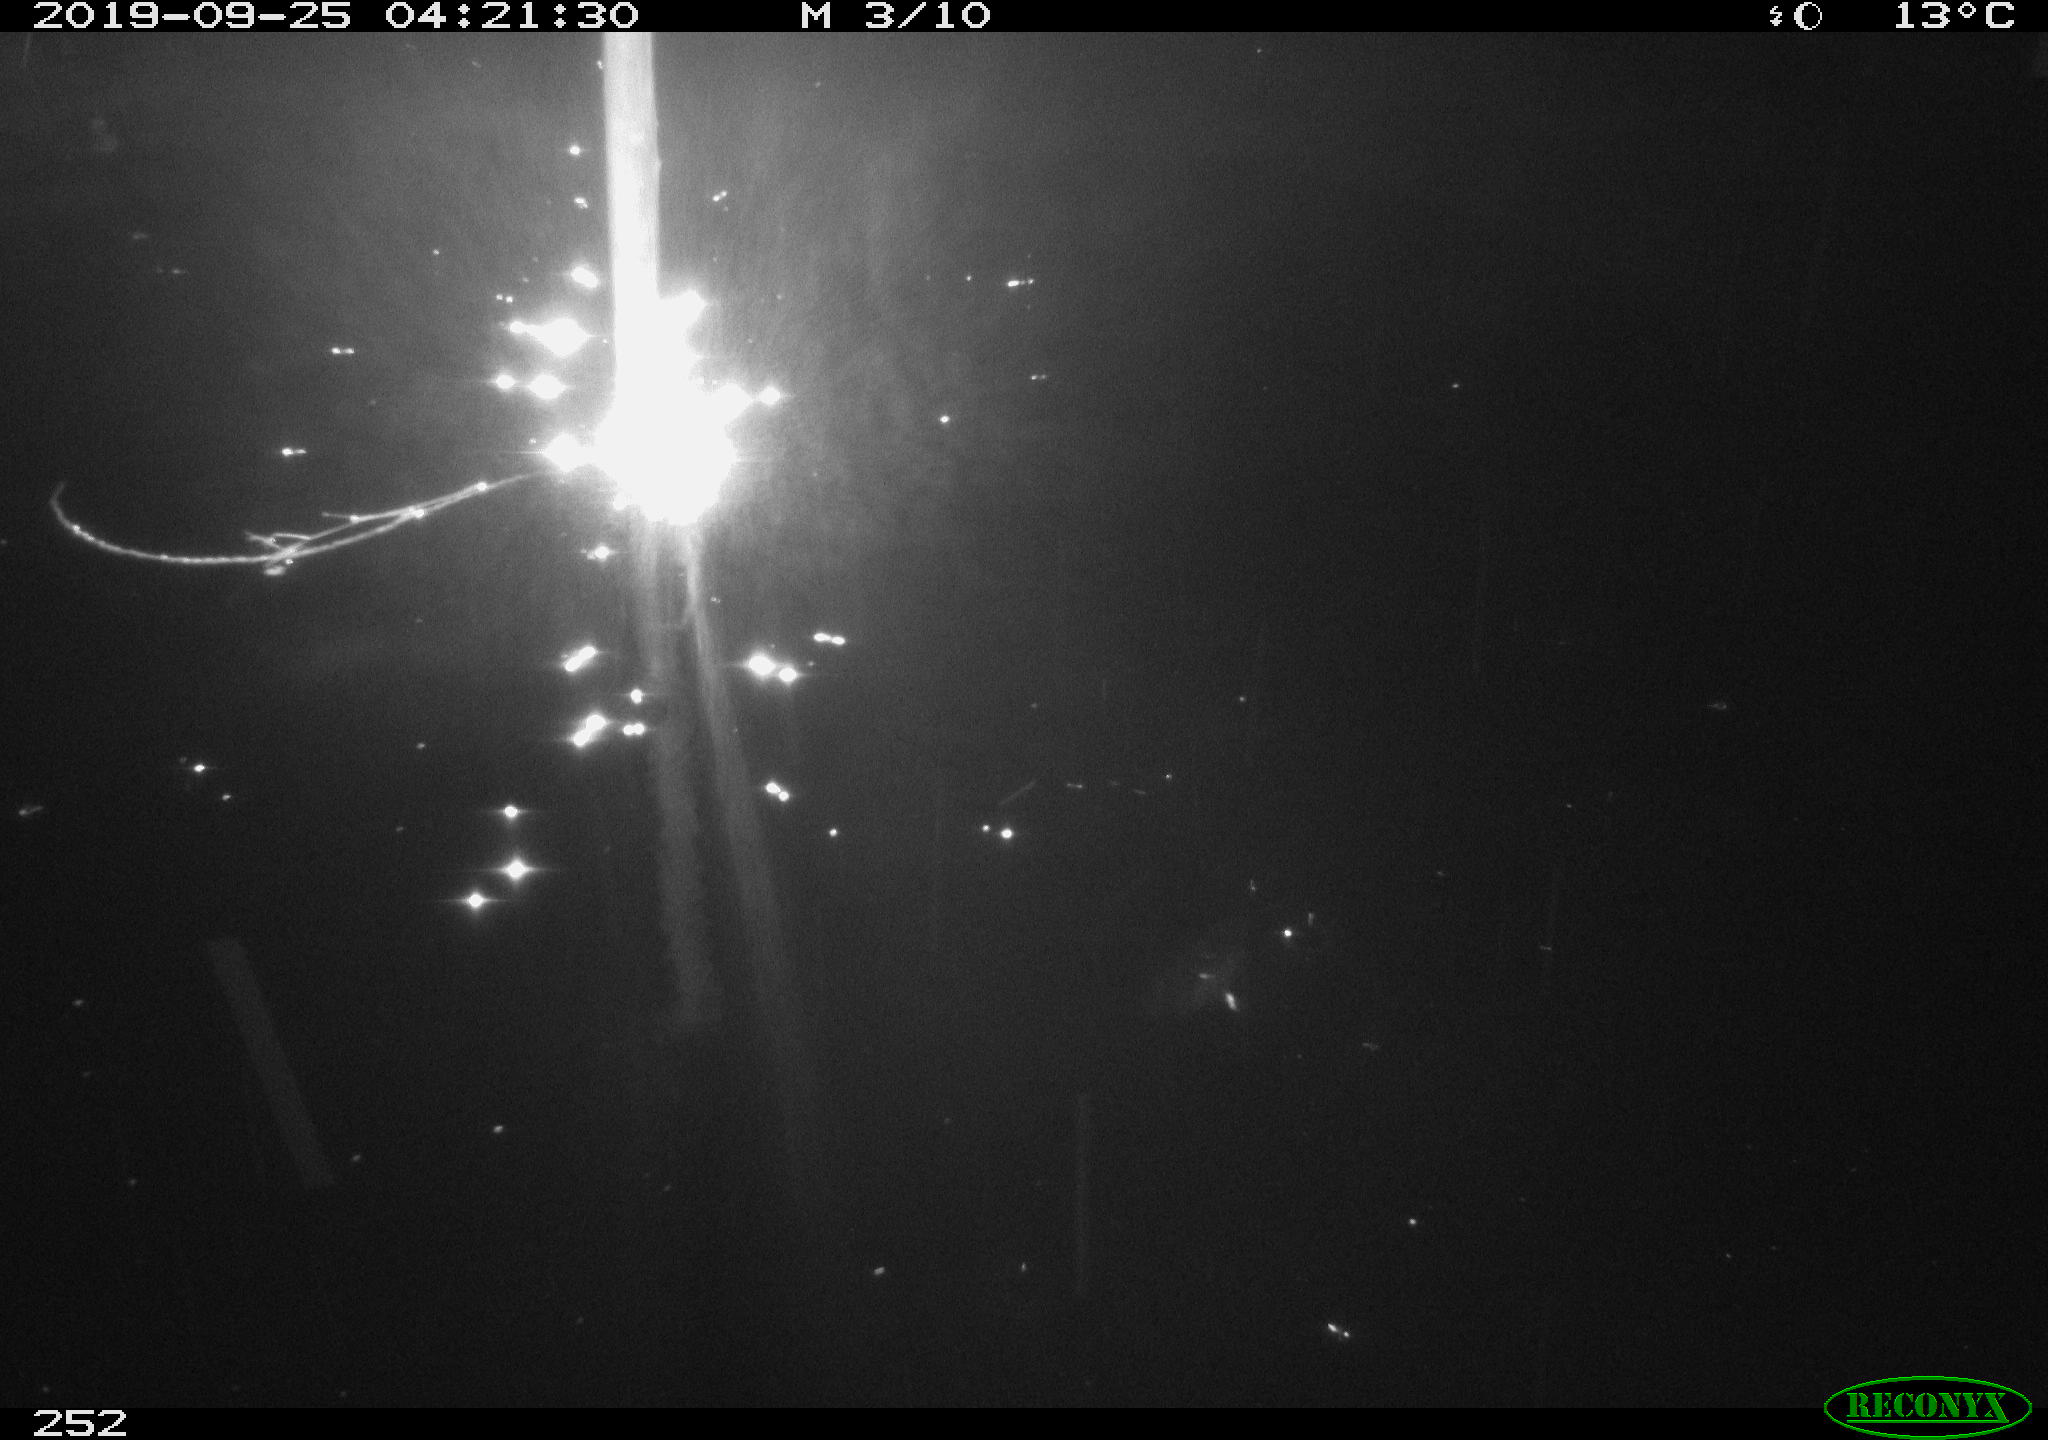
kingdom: Animalia
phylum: Chordata
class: Aves
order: Anseriformes
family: Anatidae
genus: Anas
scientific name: Anas platyrhynchos
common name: Mallard
